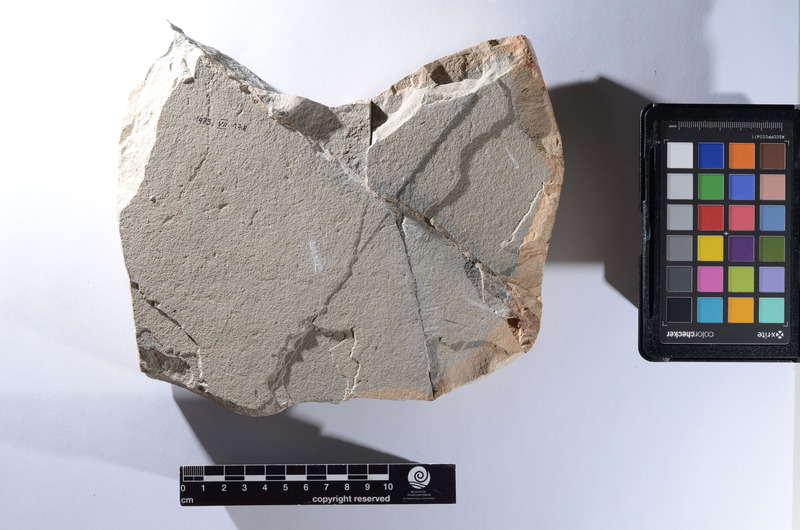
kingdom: Animalia
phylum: Chordata
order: Anguilliformes
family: Nettastomatidae
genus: Leptocephalus
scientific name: Leptocephalus
